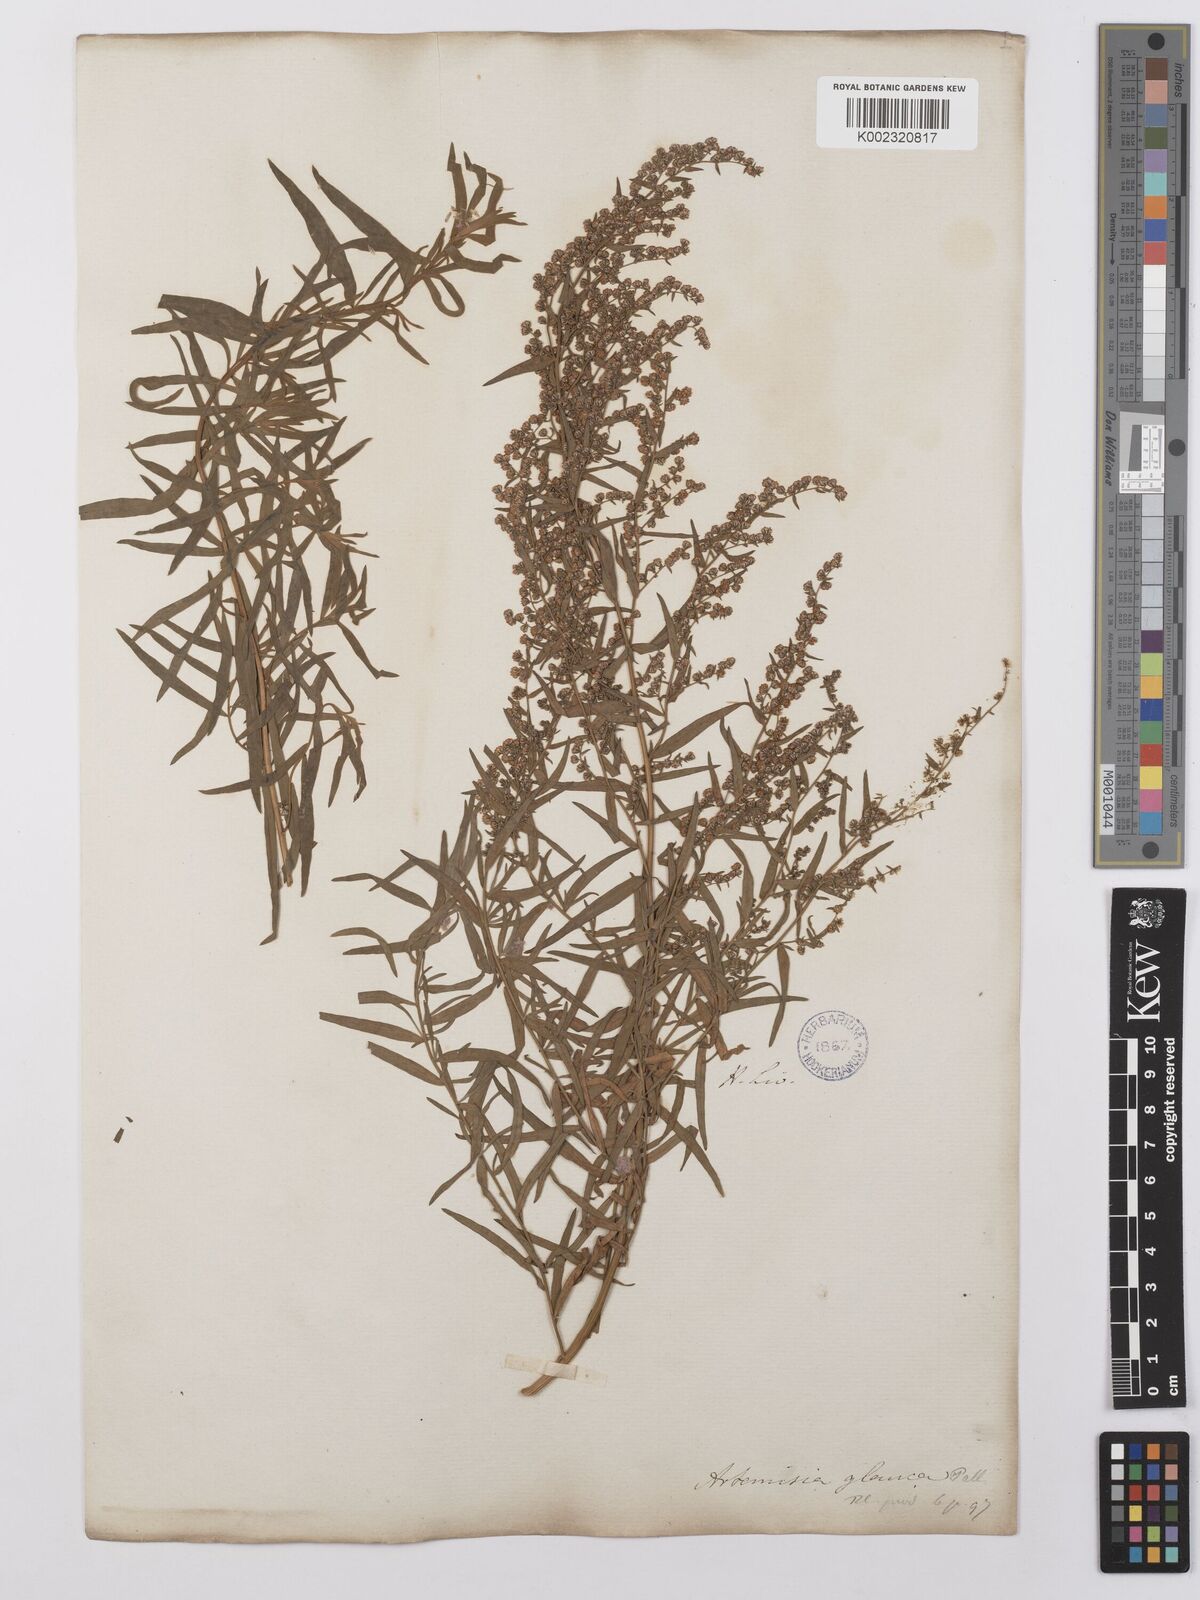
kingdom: Plantae
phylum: Tracheophyta
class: Magnoliopsida
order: Asterales
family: Asteraceae
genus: Artemisia
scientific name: Artemisia glauca
